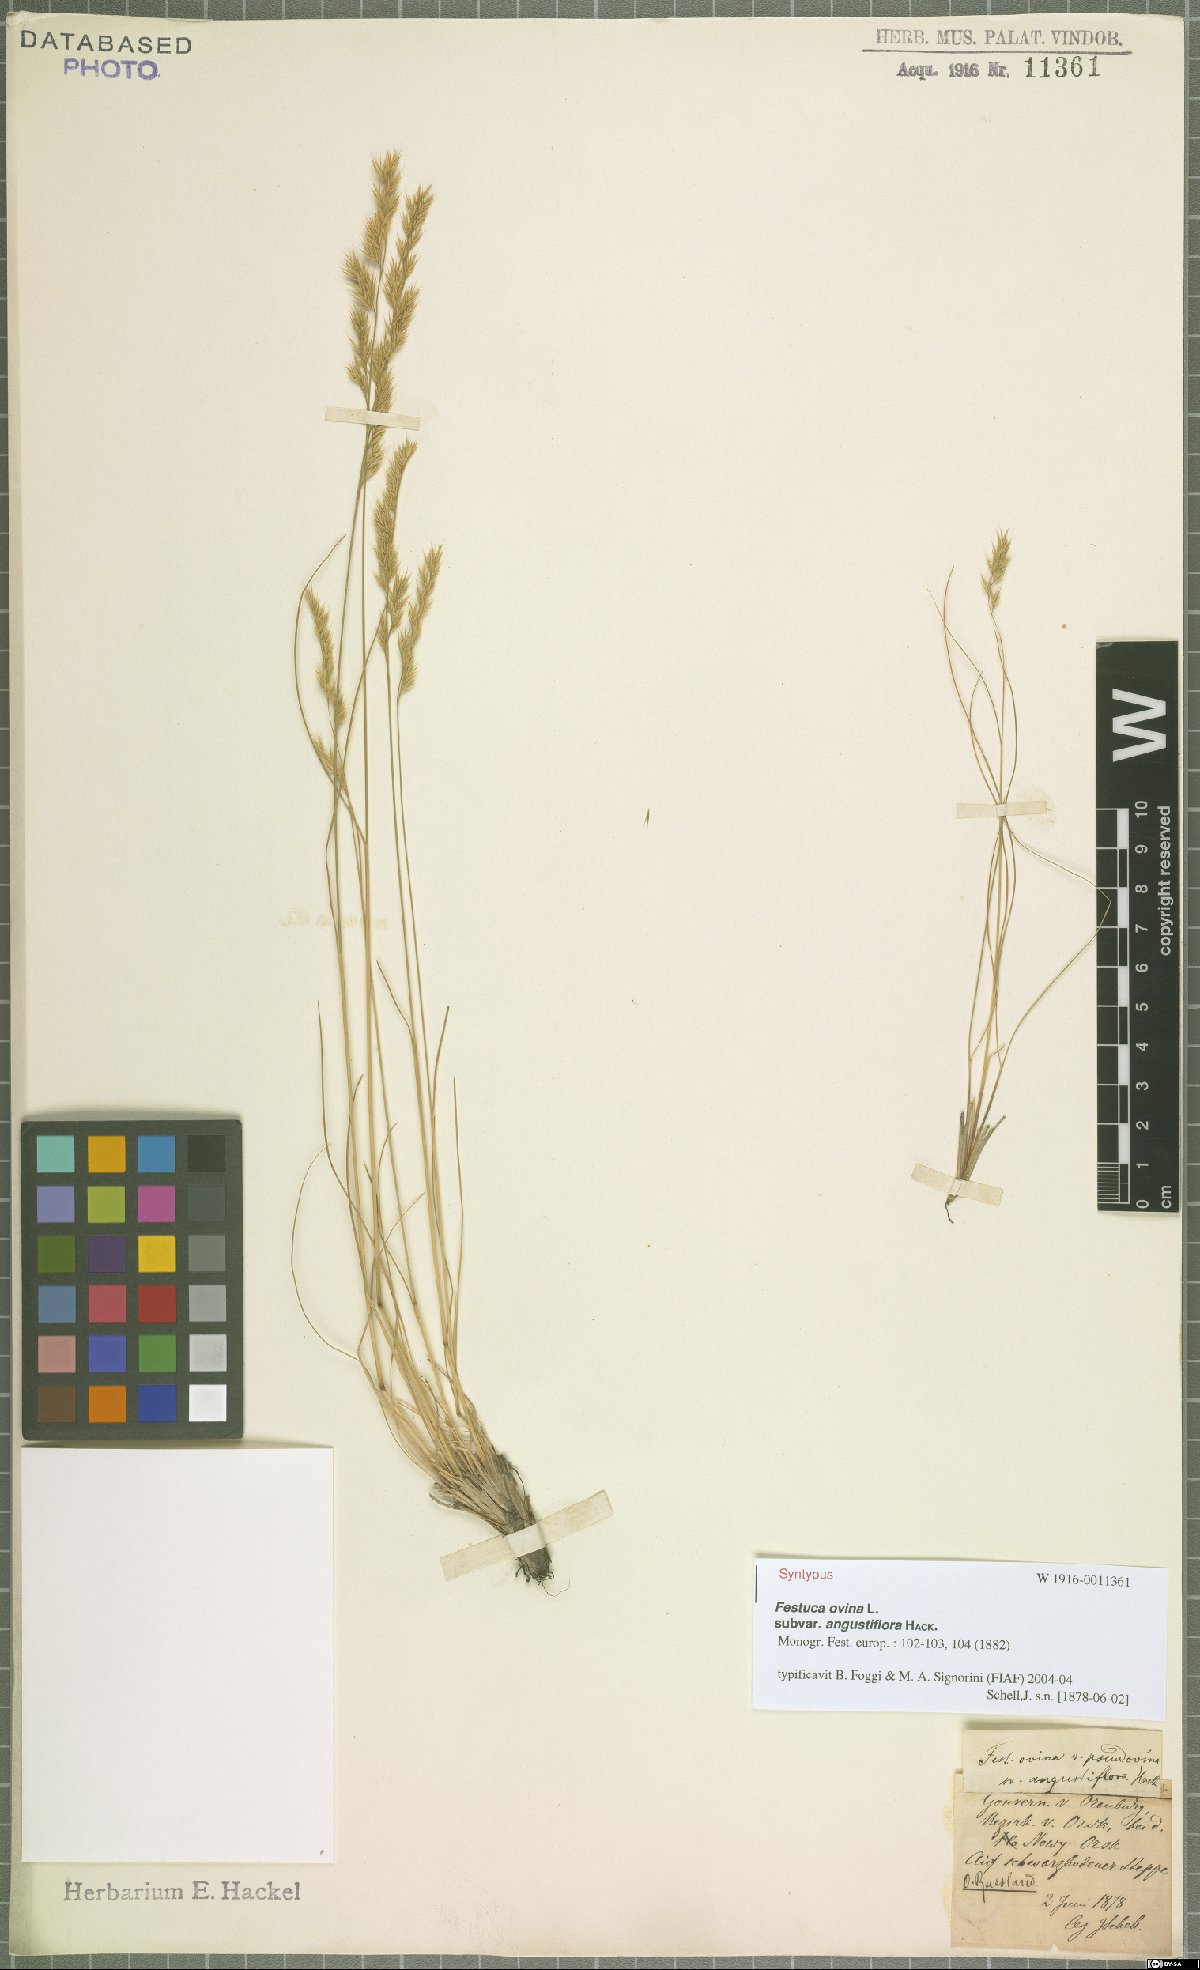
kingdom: Plantae
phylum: Tracheophyta
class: Liliopsida
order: Poales
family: Poaceae
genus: Festuca
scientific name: Festuca ovina
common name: Sheep fescue
